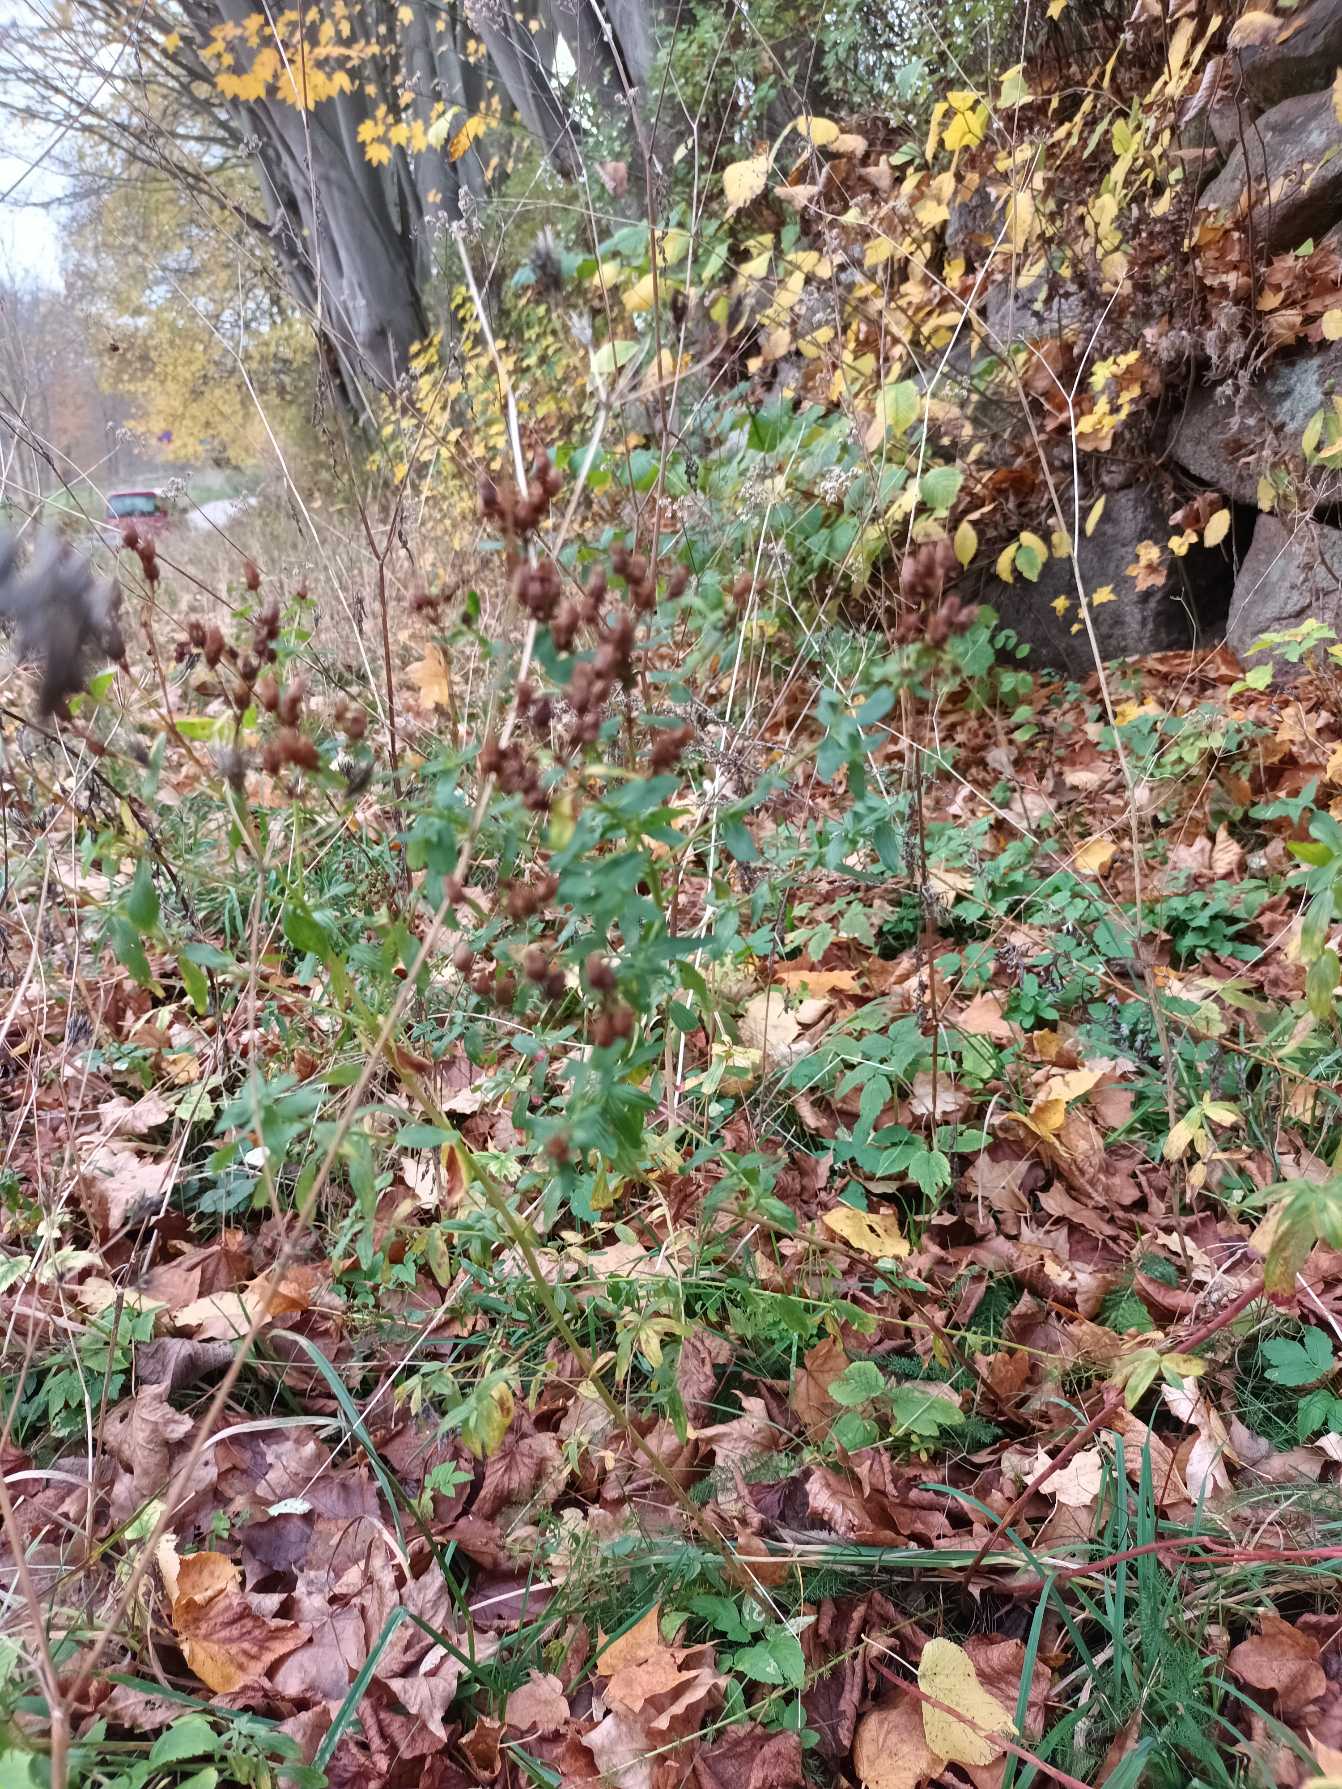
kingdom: Plantae
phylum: Tracheophyta
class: Magnoliopsida
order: Malpighiales
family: Hypericaceae
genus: Hypericum
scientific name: Hypericum perforatum
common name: Prikbladet perikon
